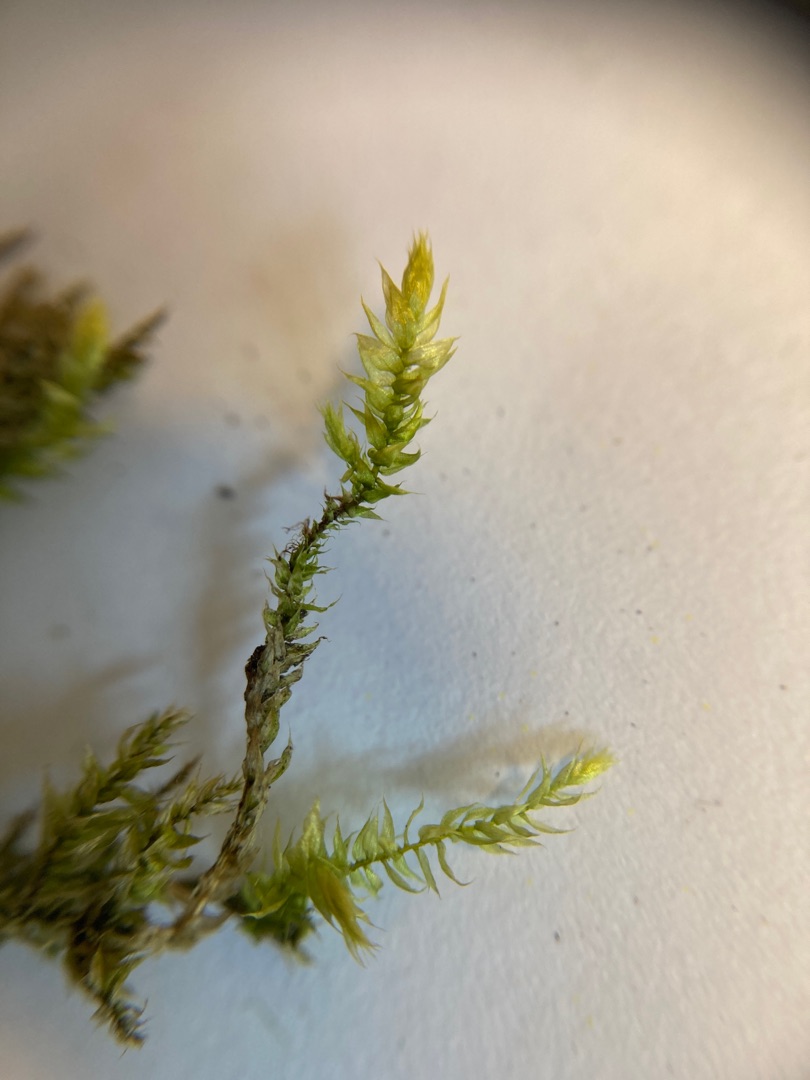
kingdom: Plantae
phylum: Bryophyta
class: Bryopsida
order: Hypnales
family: Brachytheciaceae
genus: Brachythecium
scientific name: Brachythecium rutabulum
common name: Almindelig kortkapsel
